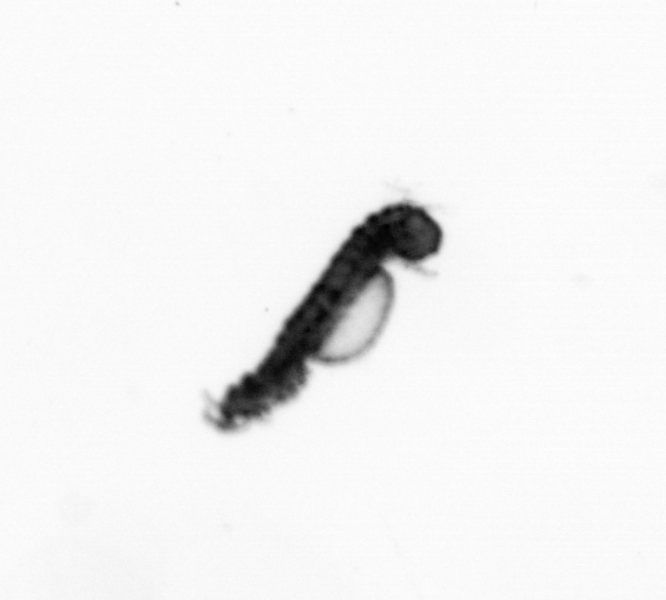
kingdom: Animalia
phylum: Annelida
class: Polychaeta
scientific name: Polychaeta
